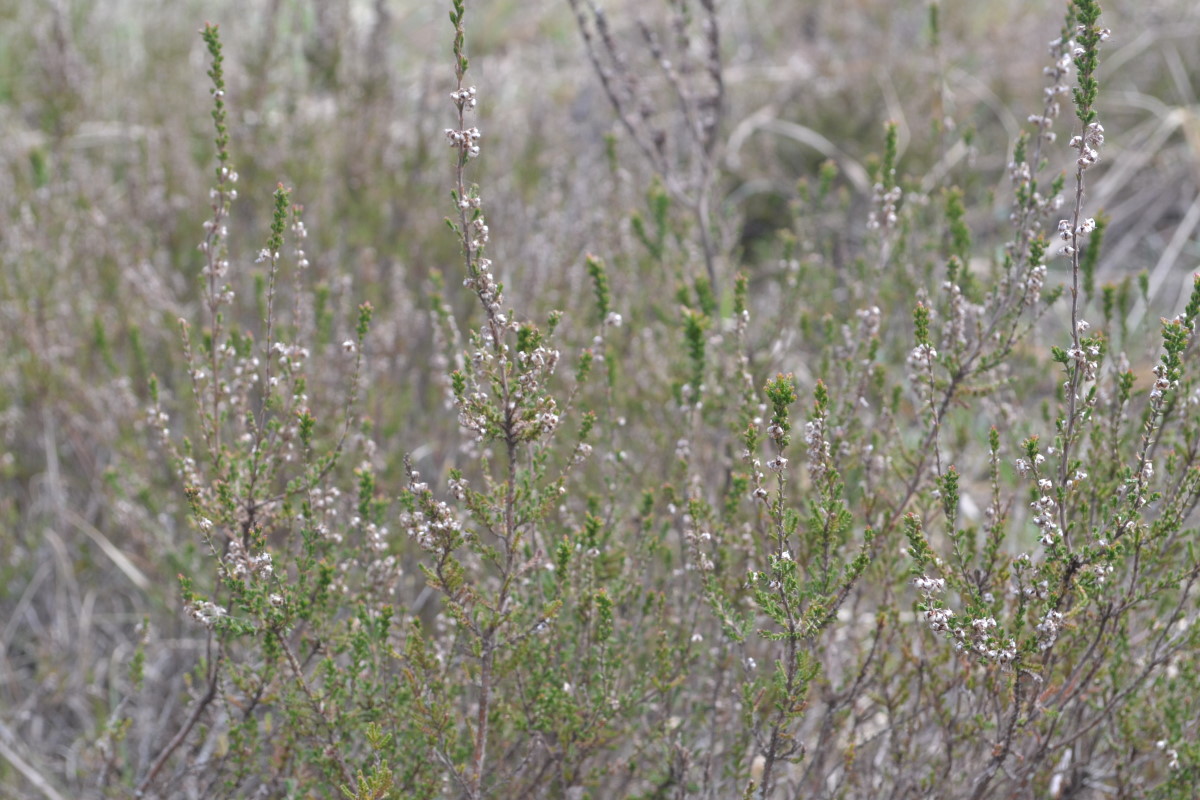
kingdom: Plantae
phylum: Tracheophyta
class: Magnoliopsida
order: Ericales
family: Ericaceae
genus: Calluna
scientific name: Calluna vulgaris
